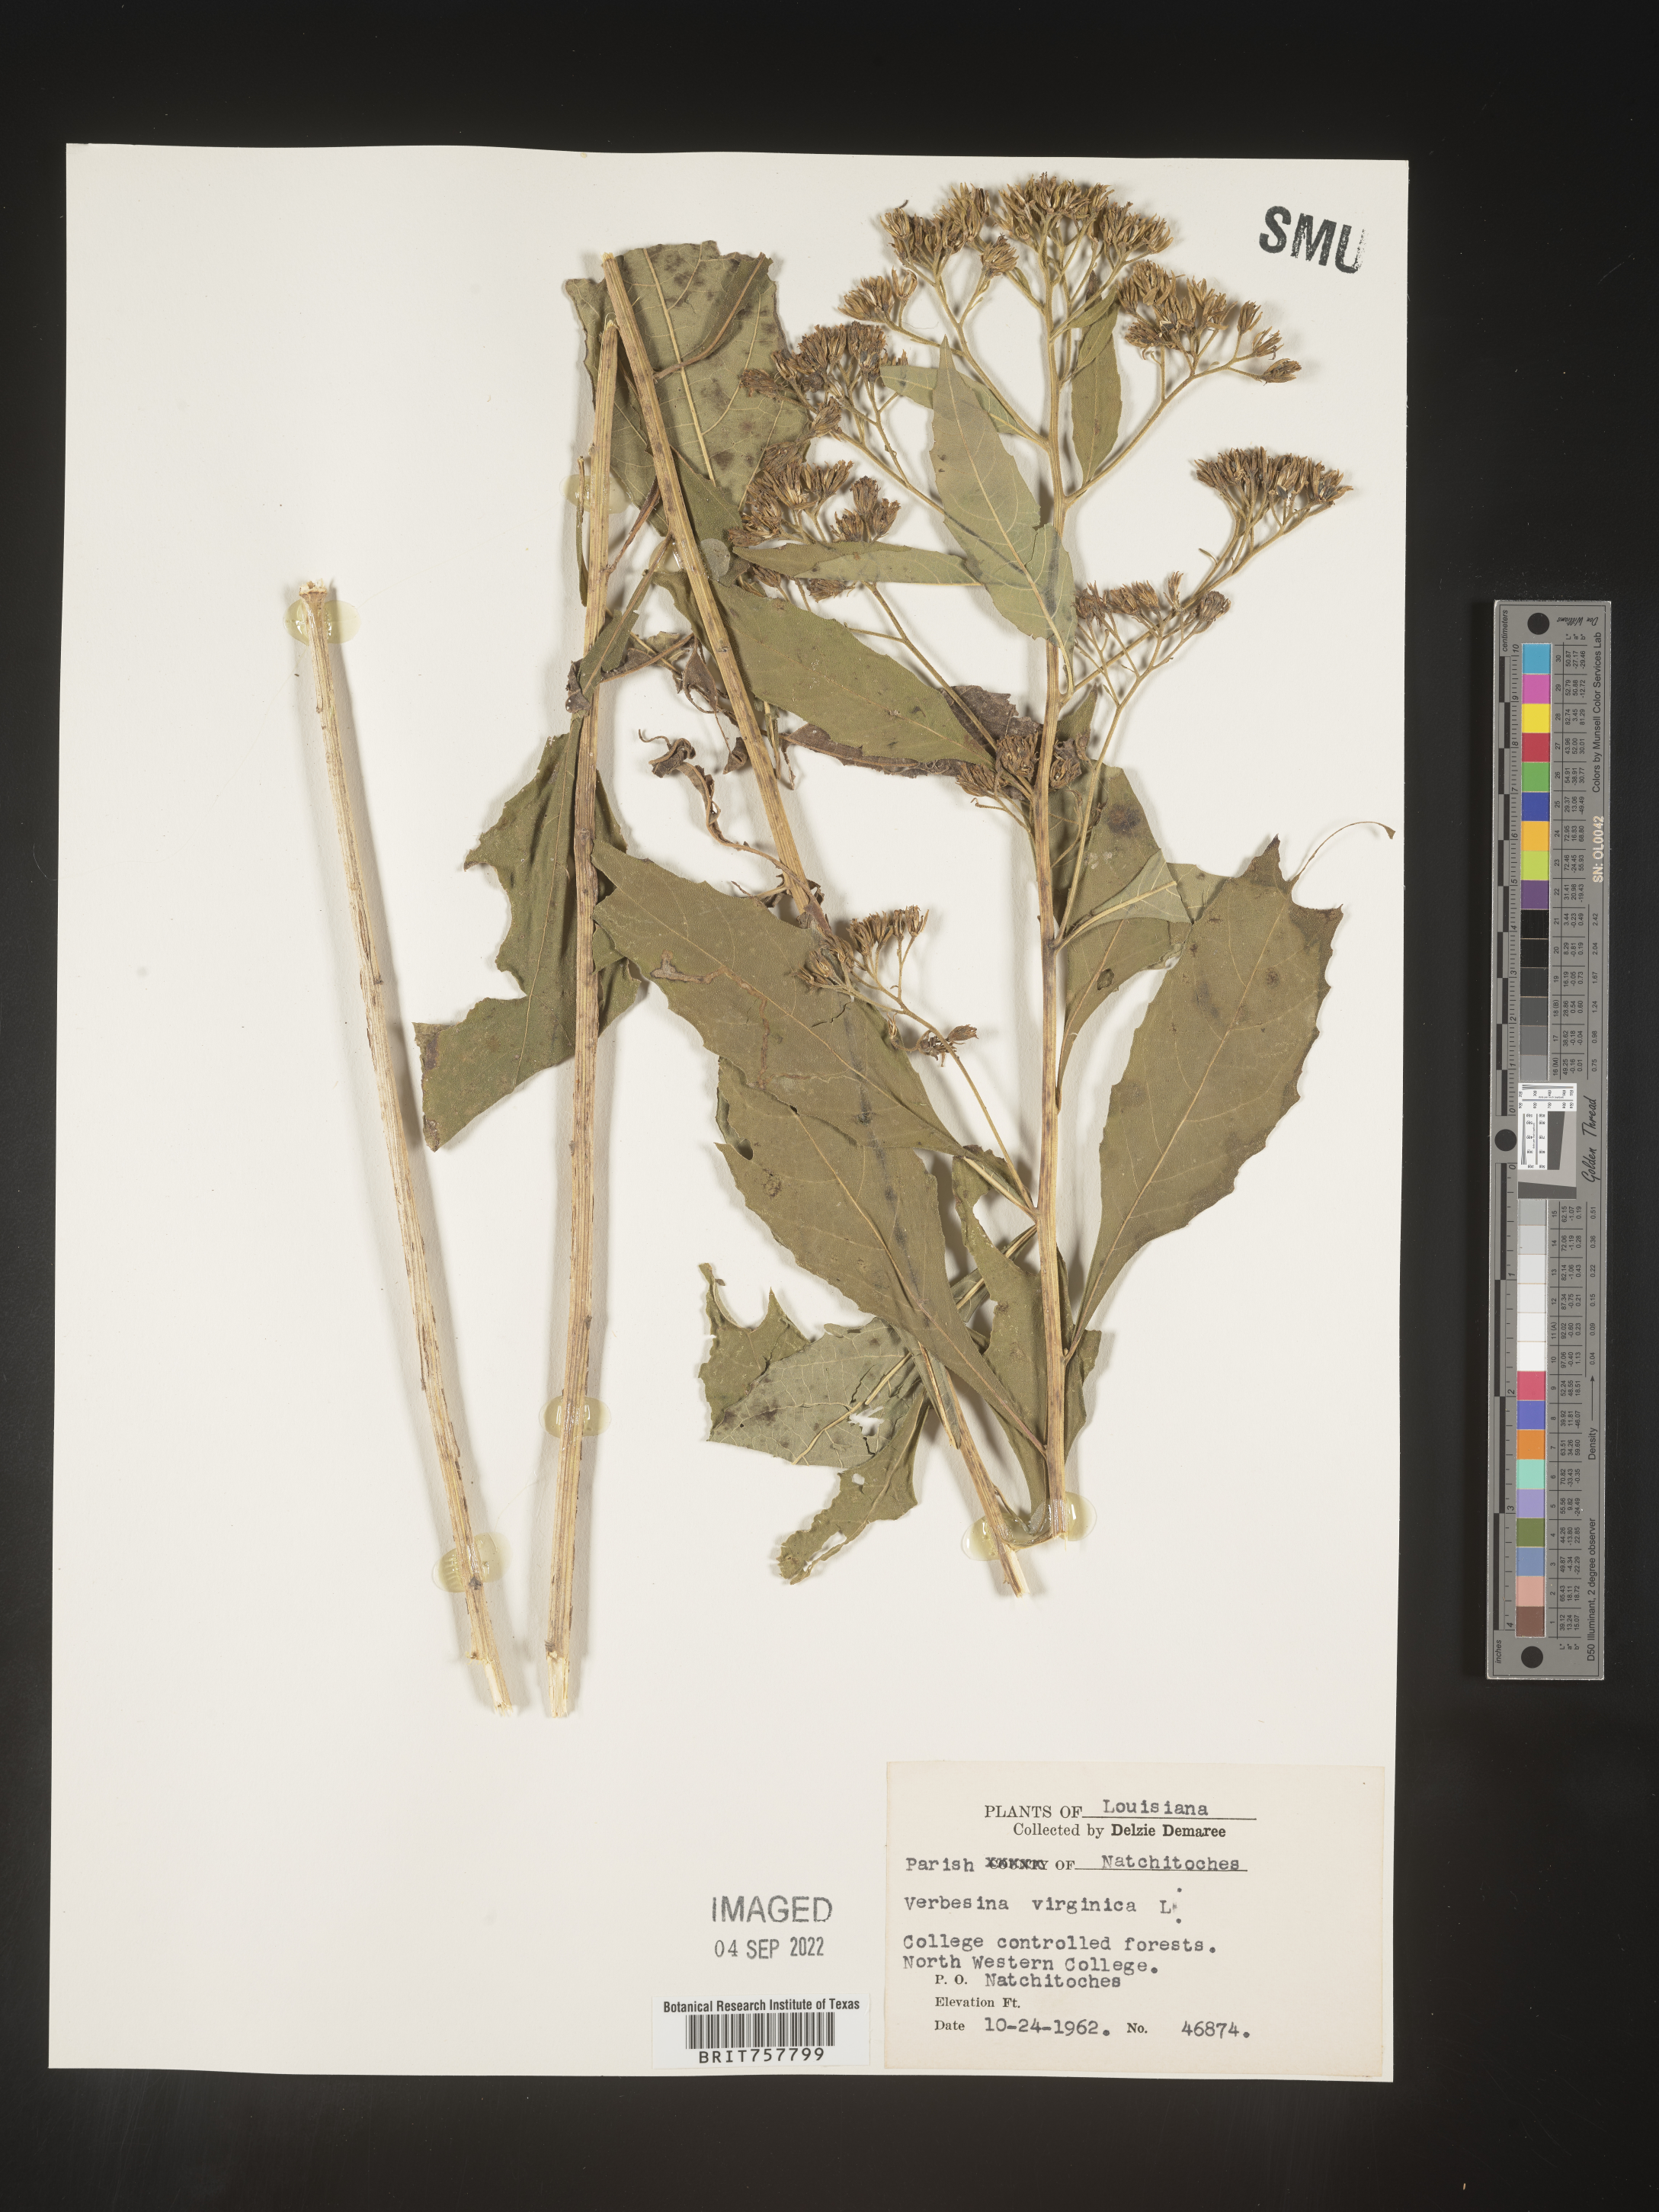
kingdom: Plantae
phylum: Tracheophyta
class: Magnoliopsida
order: Asterales
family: Asteraceae
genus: Verbesina
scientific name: Verbesina virginica
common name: Frostweed
